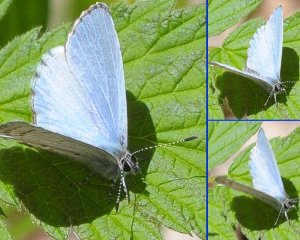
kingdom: Animalia
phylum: Arthropoda
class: Insecta
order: Lepidoptera
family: Lycaenidae
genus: Celastrina
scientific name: Celastrina
